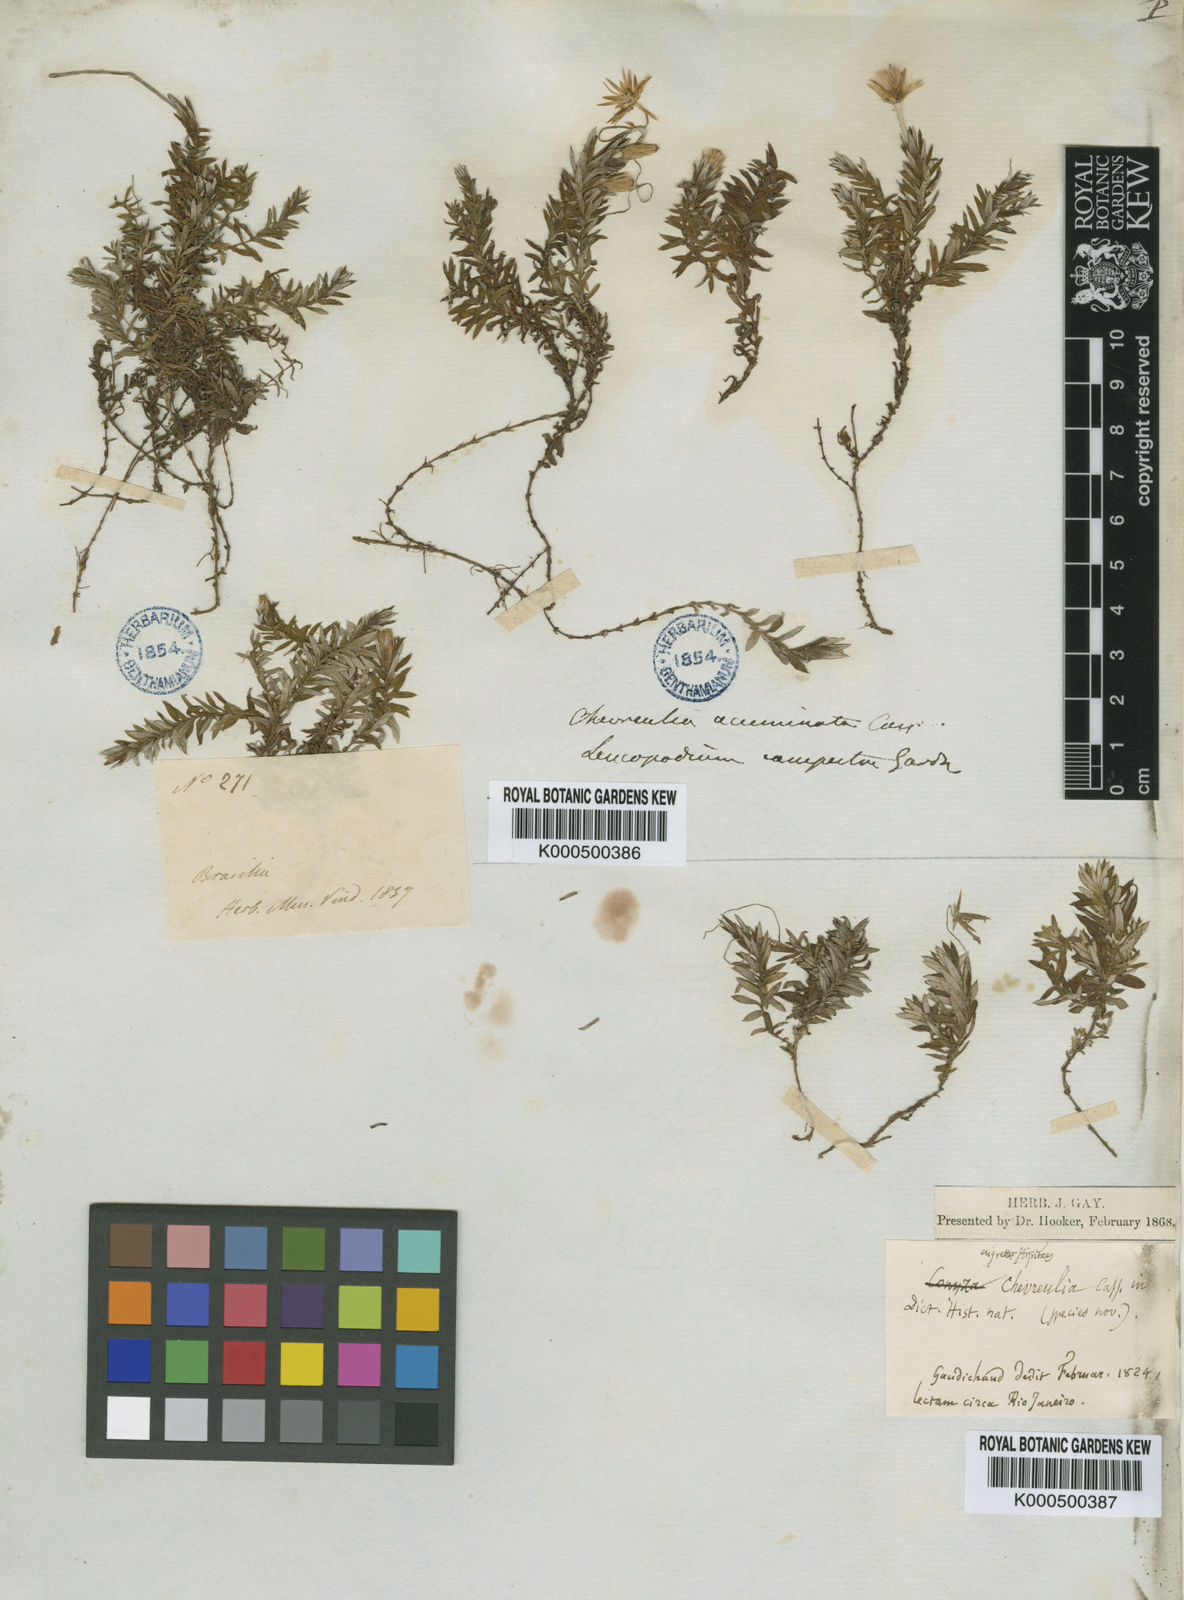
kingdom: Plantae
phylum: Tracheophyta
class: Magnoliopsida
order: Asterales
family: Asteraceae
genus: Chevreulia
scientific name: Chevreulia
